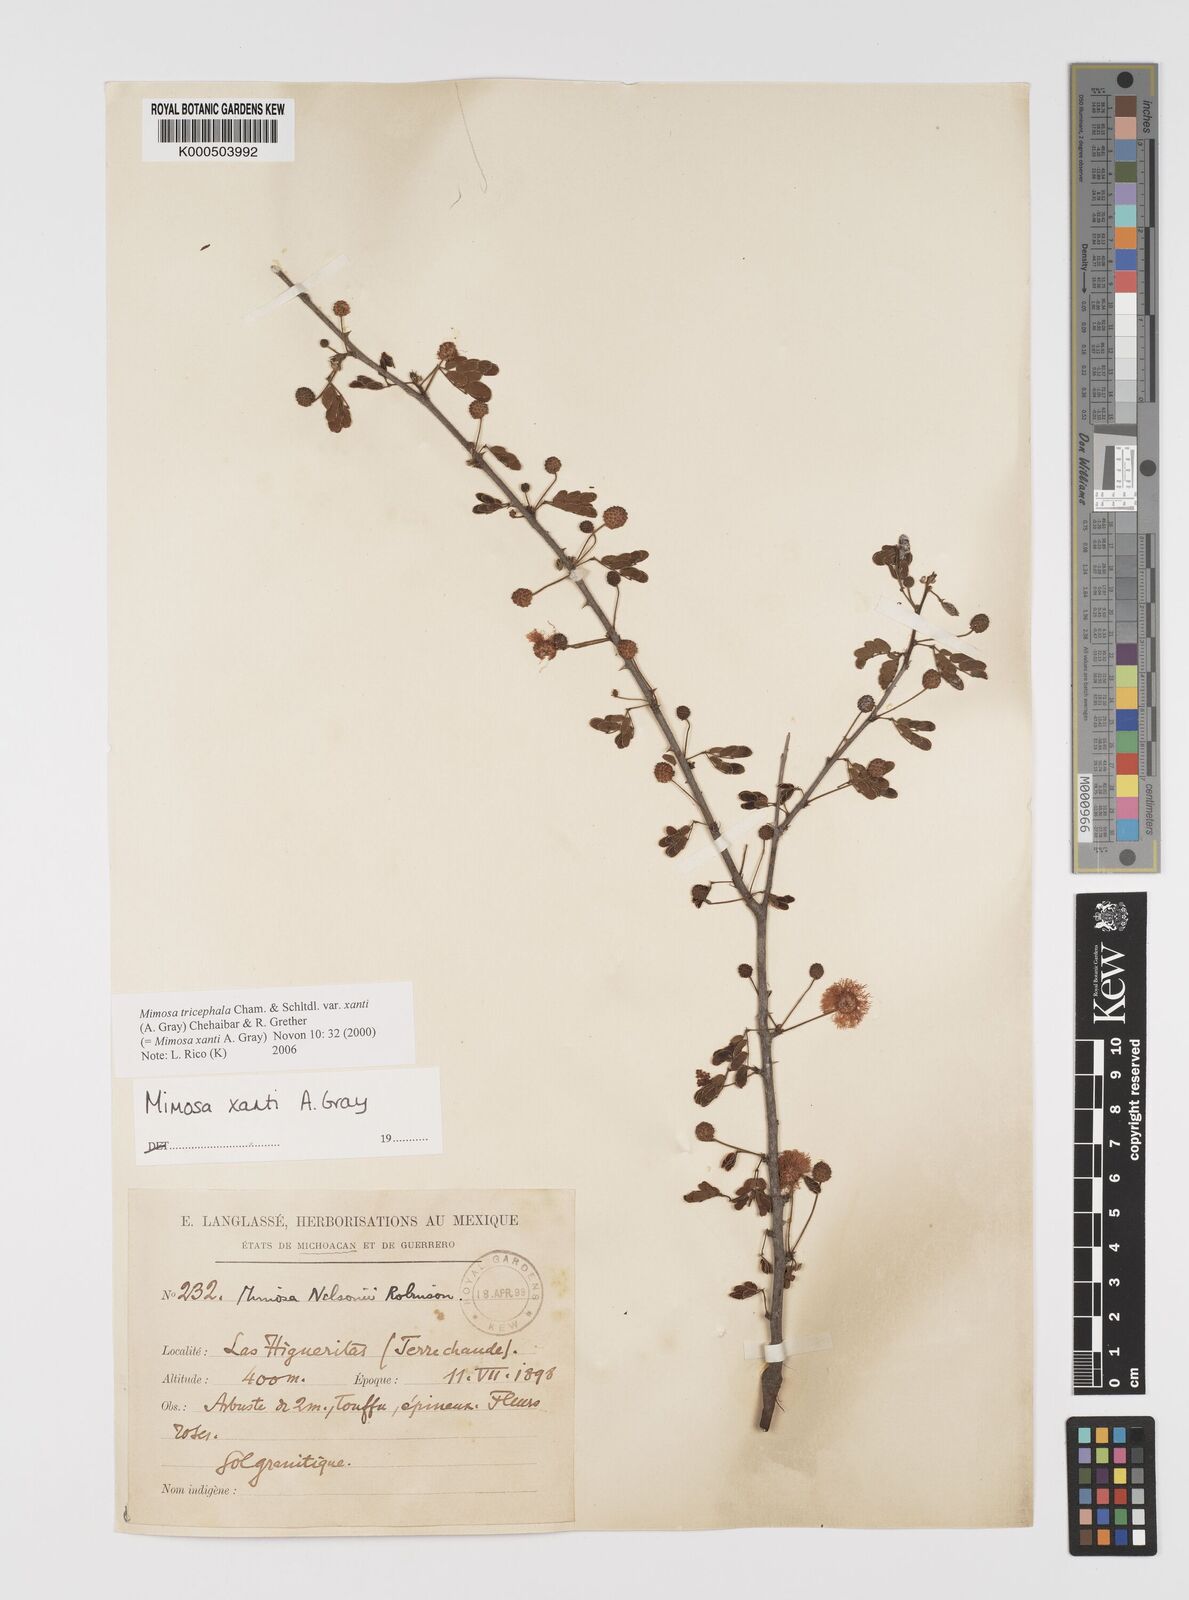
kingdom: Plantae
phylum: Tracheophyta
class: Magnoliopsida
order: Fabales
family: Fabaceae
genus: Mimosa
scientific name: Mimosa tricephala
